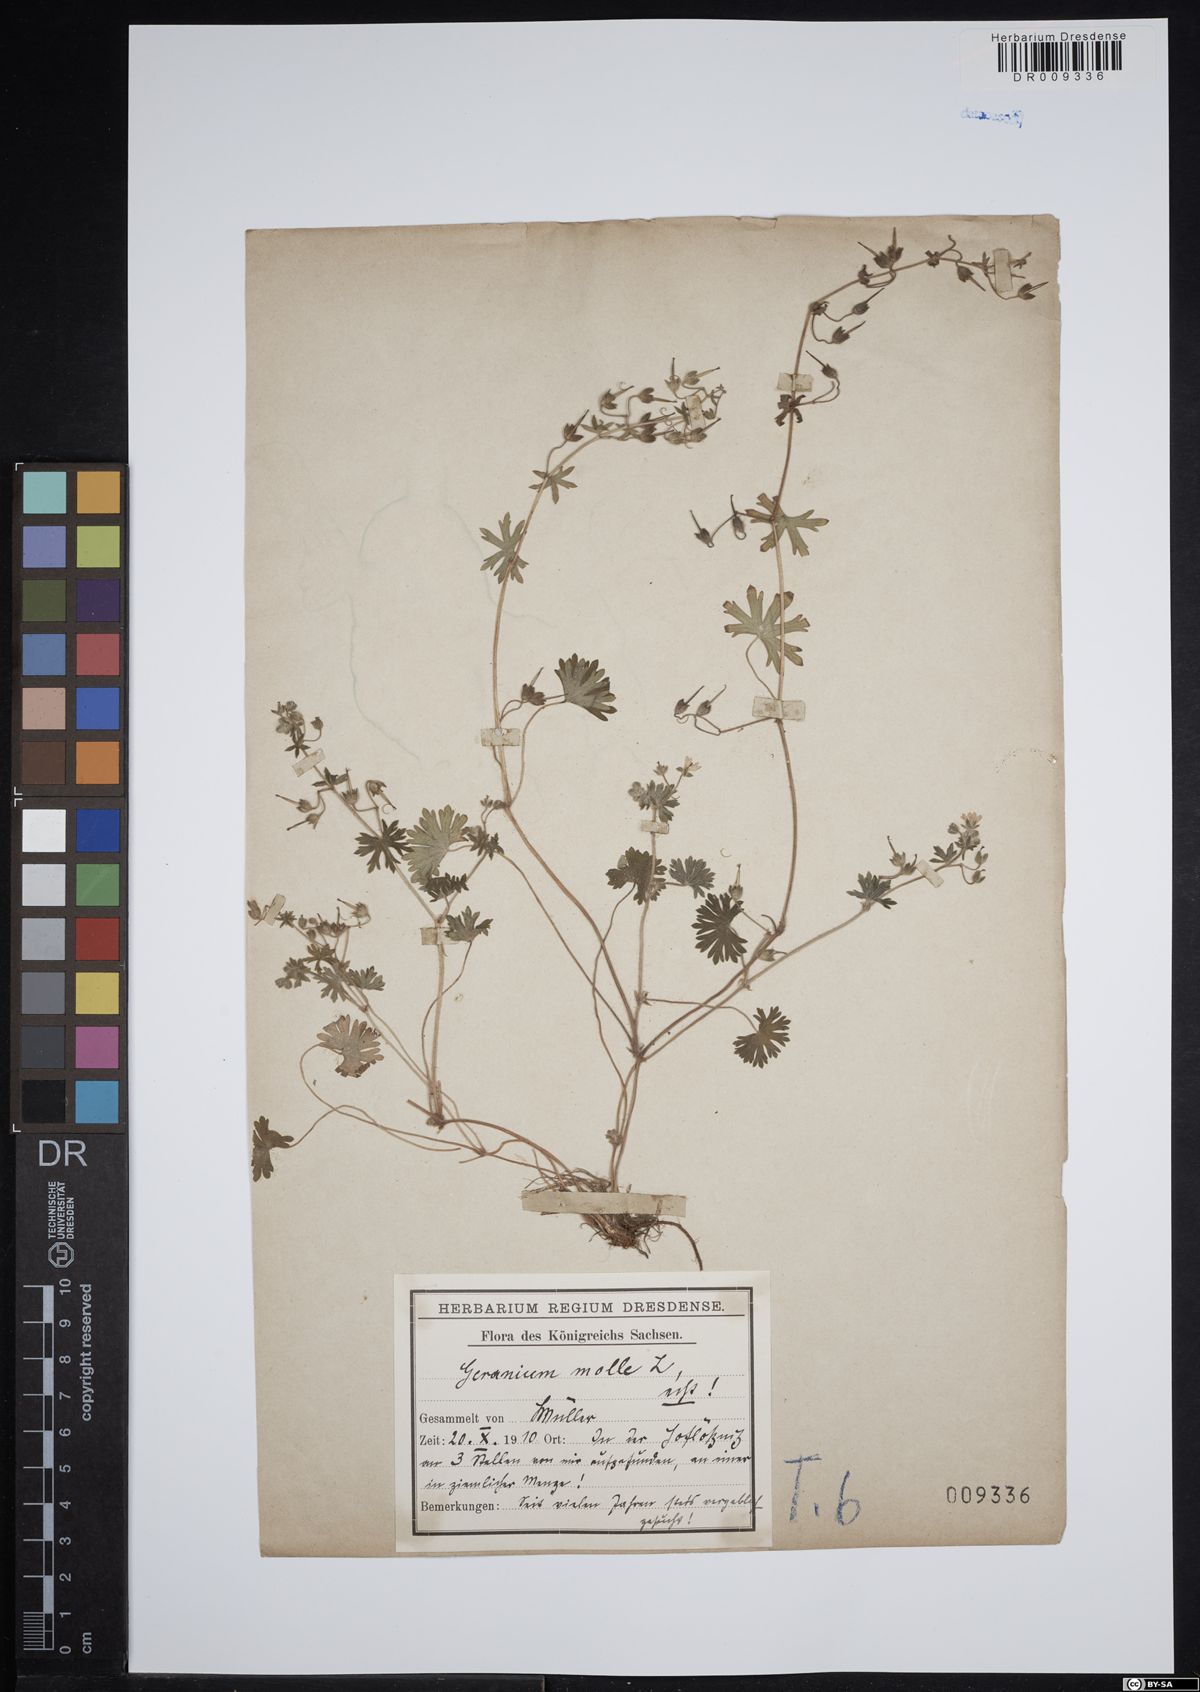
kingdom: Plantae
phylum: Tracheophyta
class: Magnoliopsida
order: Geraniales
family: Geraniaceae
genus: Geranium
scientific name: Geranium molle
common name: Dove's-foot crane's-bill
